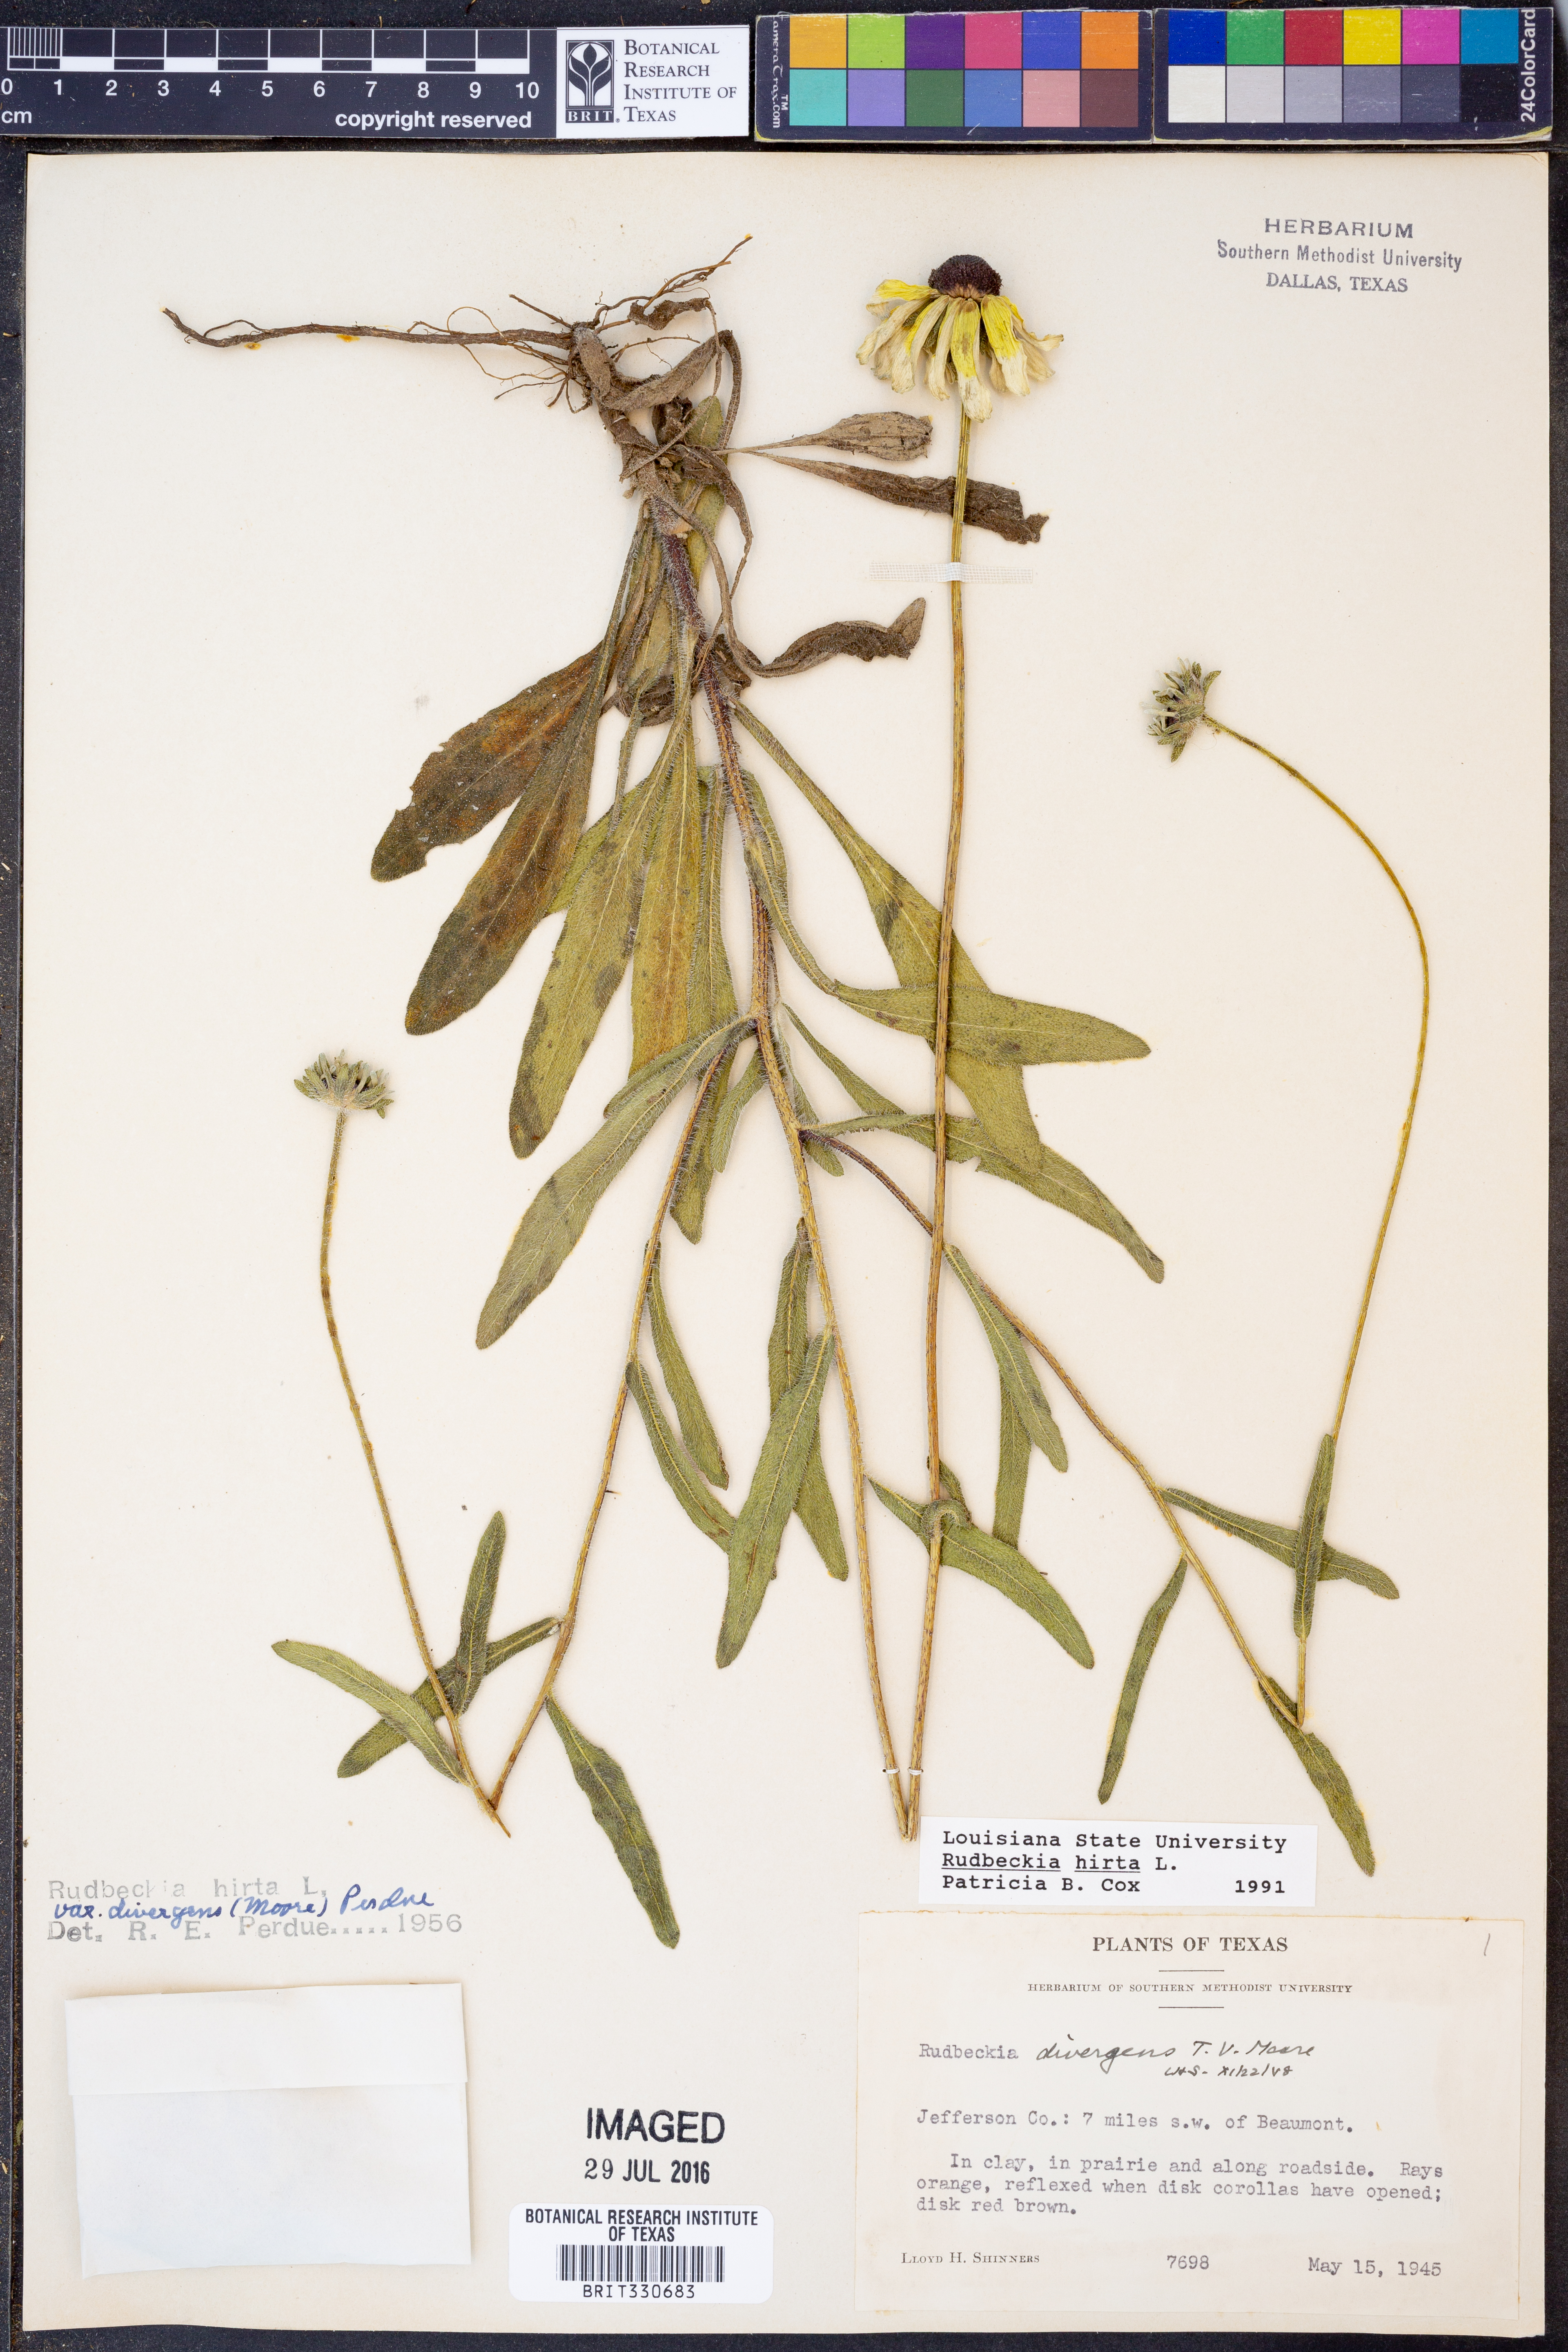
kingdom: Plantae
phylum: Tracheophyta
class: Magnoliopsida
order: Asterales
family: Asteraceae
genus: Rudbeckia
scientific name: Rudbeckia hirta
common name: Black-eyed-susan
